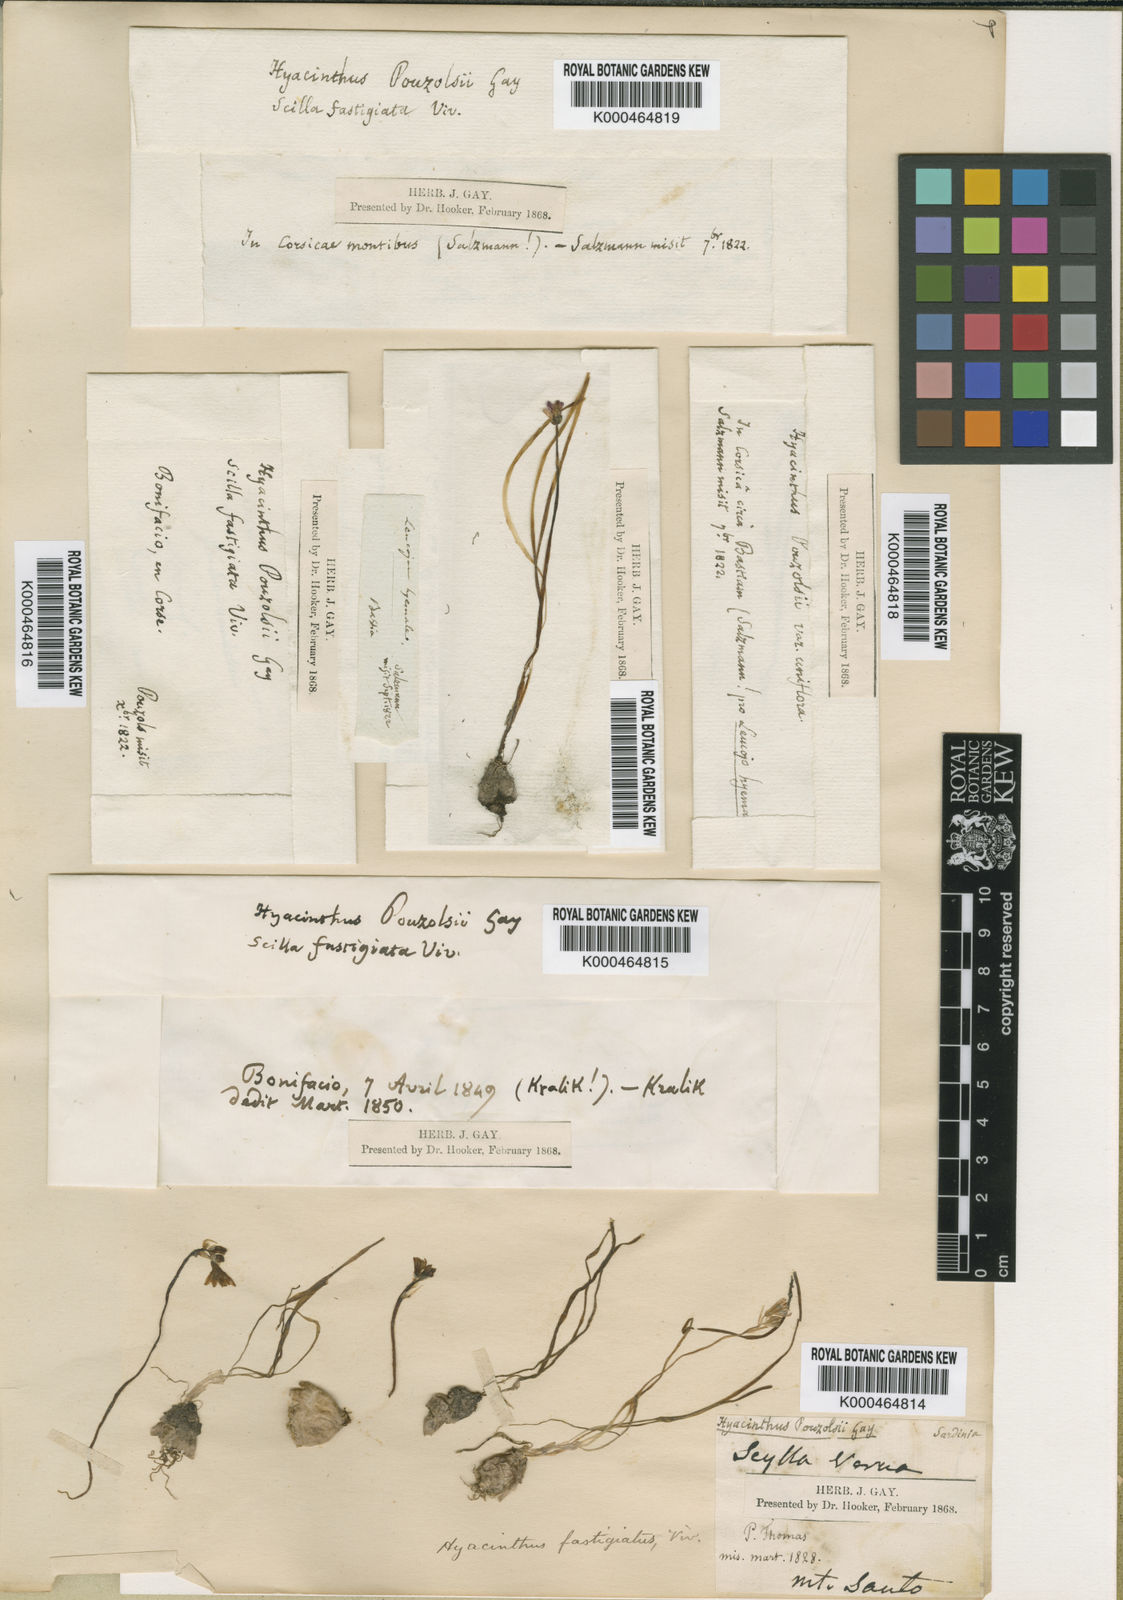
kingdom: Plantae
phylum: Tracheophyta
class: Liliopsida
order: Asparagales
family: Asparagaceae
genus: Brimeura
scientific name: Brimeura fastigiata
